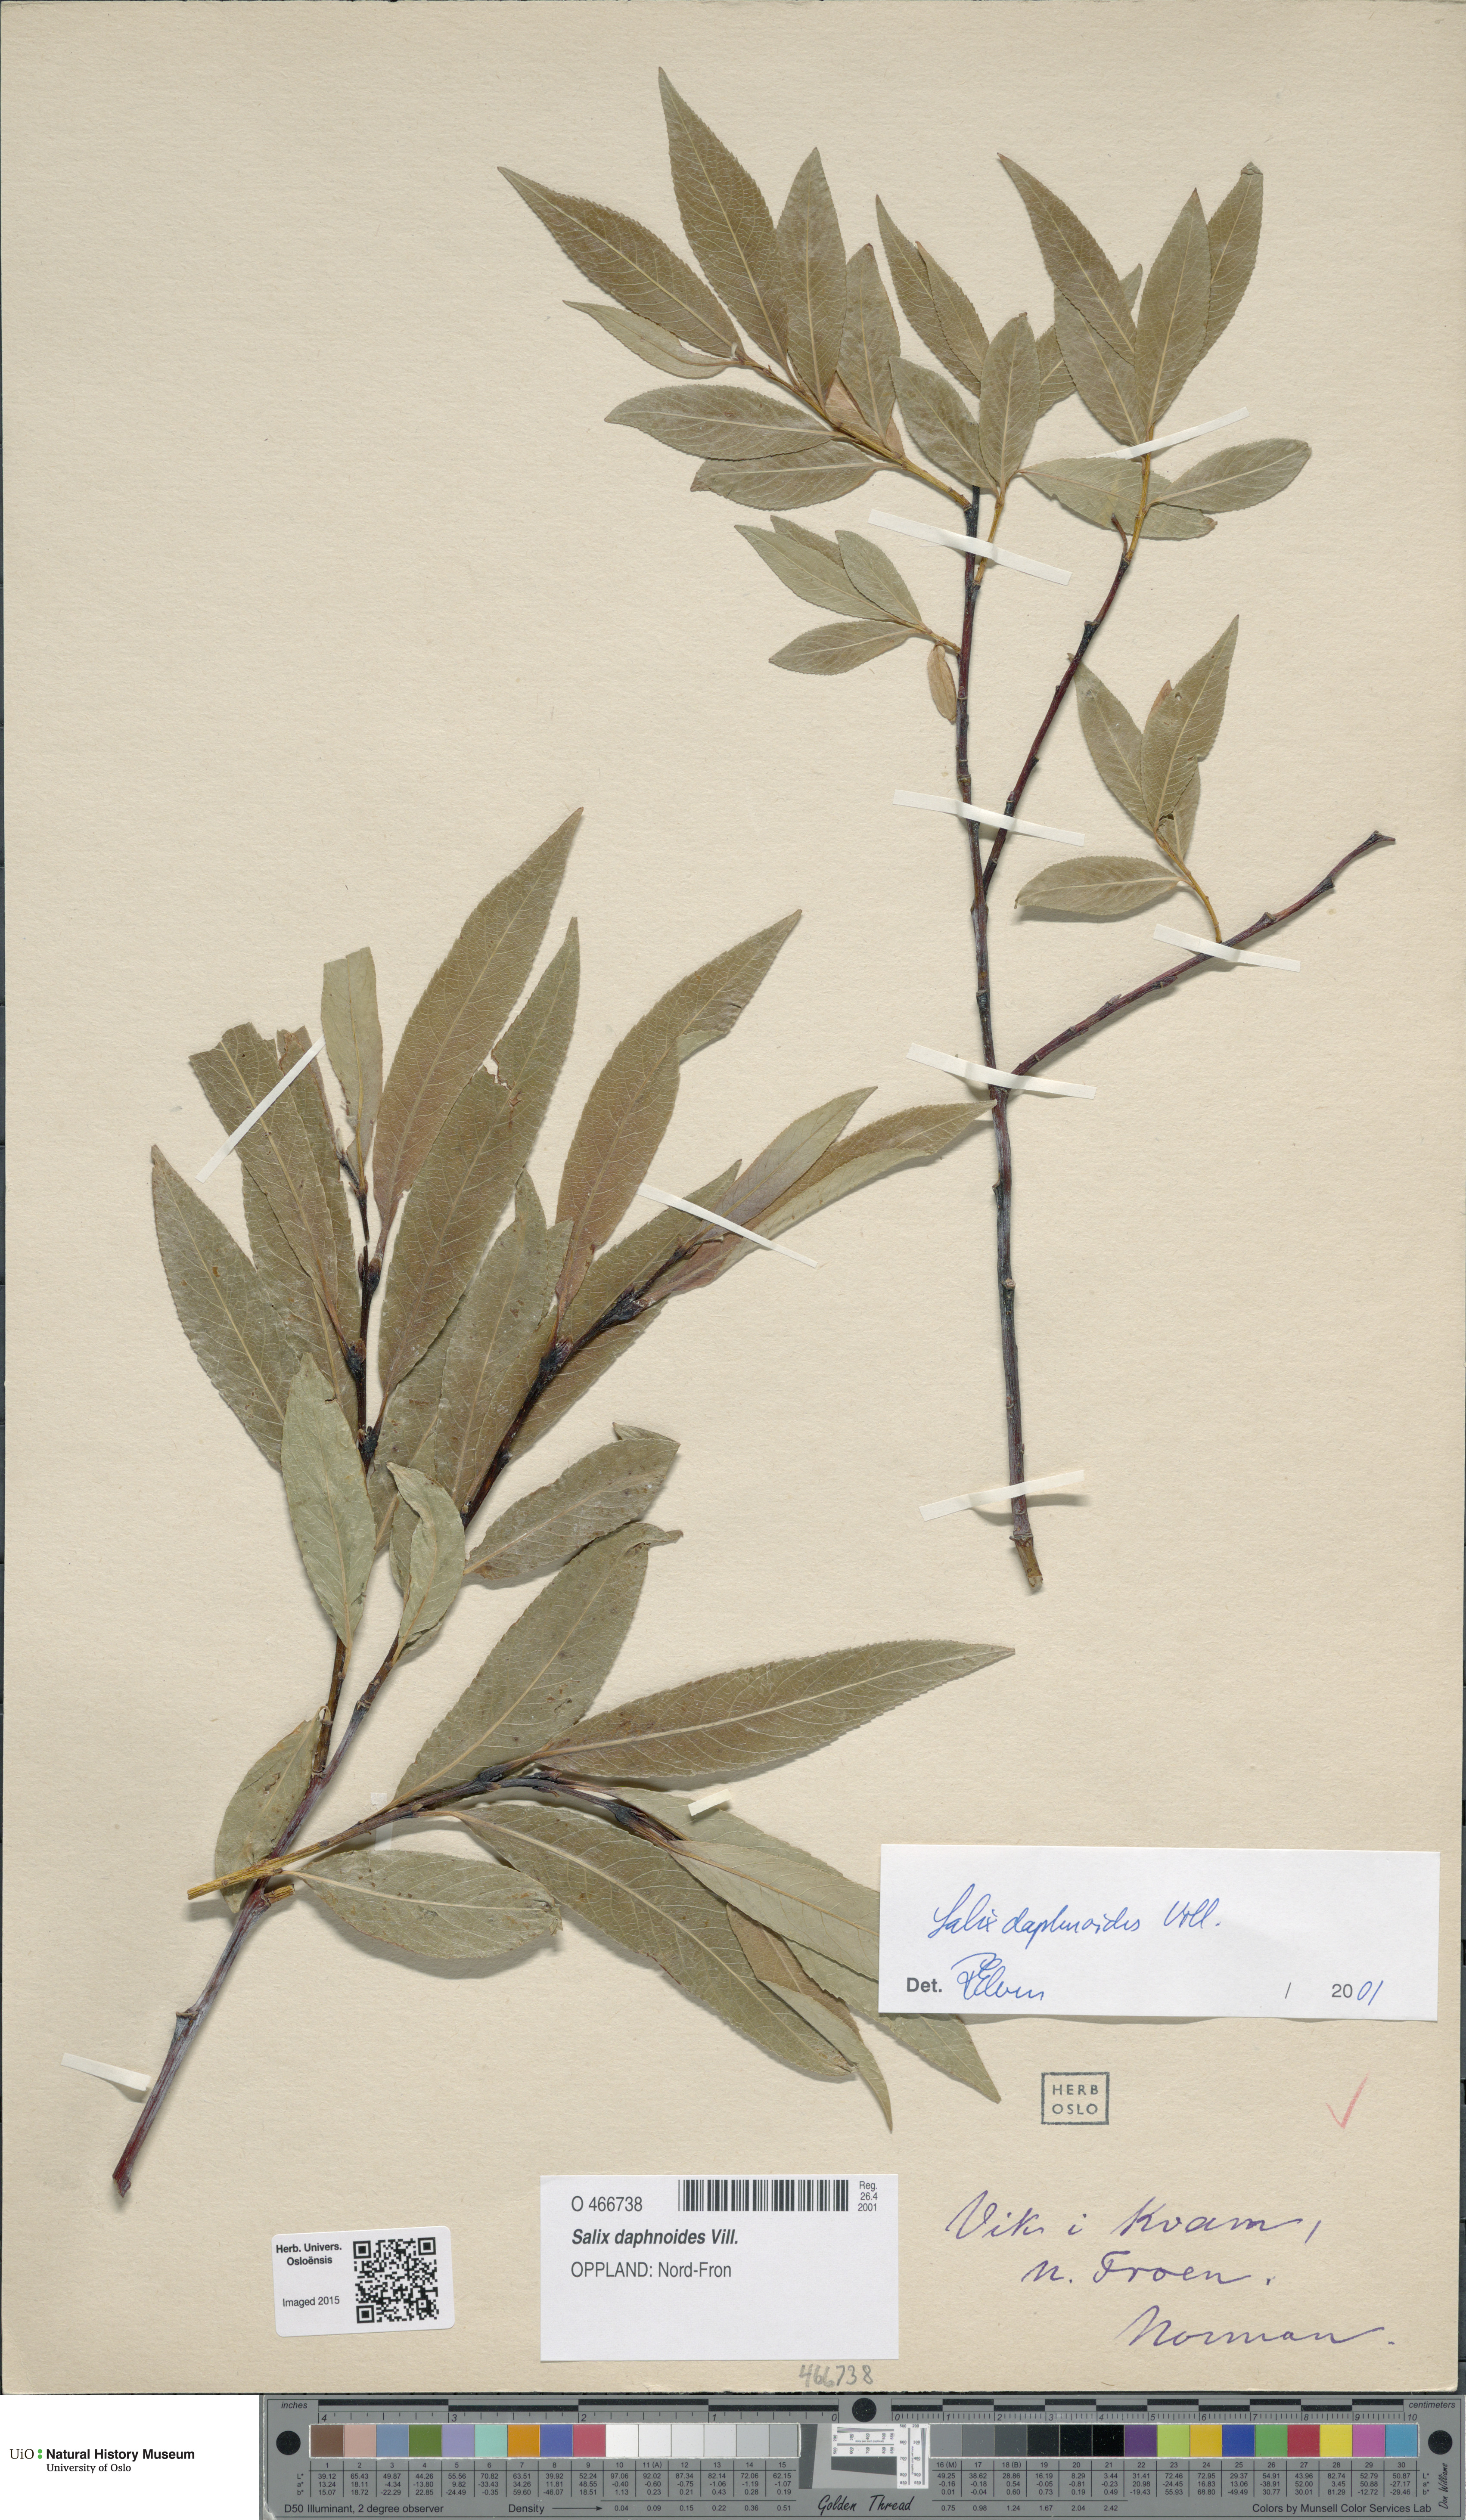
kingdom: Plantae
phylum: Tracheophyta
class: Magnoliopsida
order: Malpighiales
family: Salicaceae
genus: Salix
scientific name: Salix daphnoides
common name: European violet-willow
